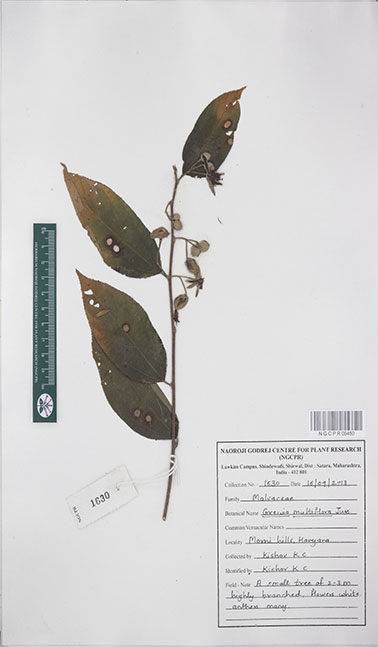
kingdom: Plantae
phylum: Tracheophyta
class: Magnoliopsida
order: Malvales
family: Malvaceae
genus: Grewia
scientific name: Grewia multiflora
